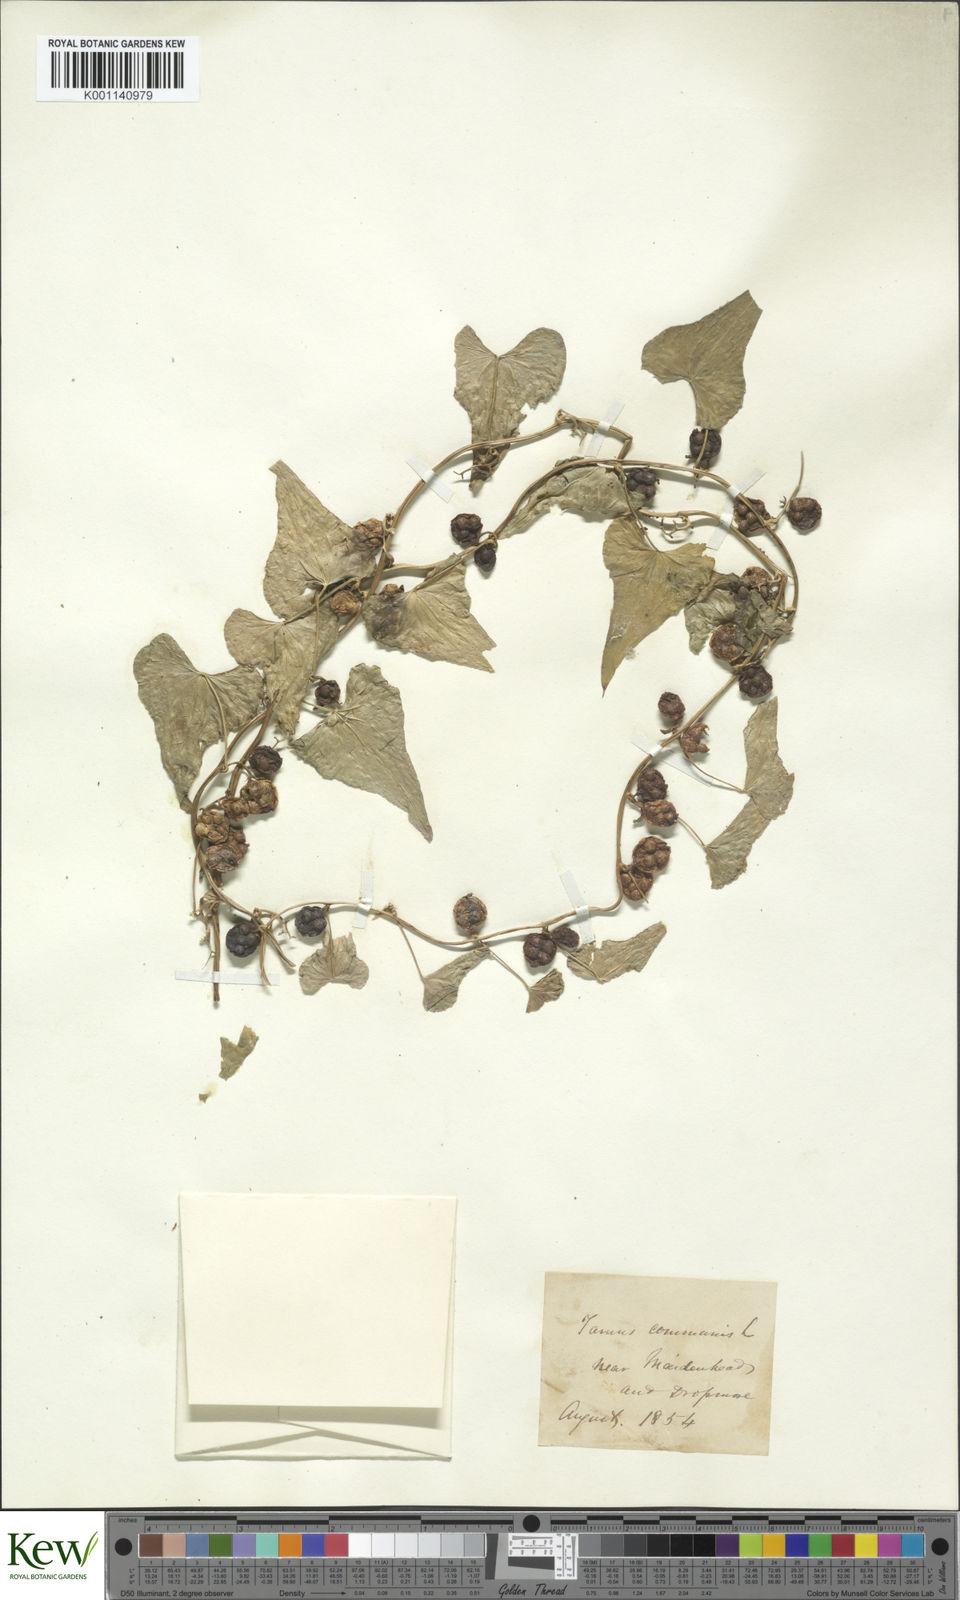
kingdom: Plantae
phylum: Tracheophyta
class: Liliopsida
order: Dioscoreales
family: Dioscoreaceae
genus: Dioscorea
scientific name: Dioscorea communis
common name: Black-bindweed
